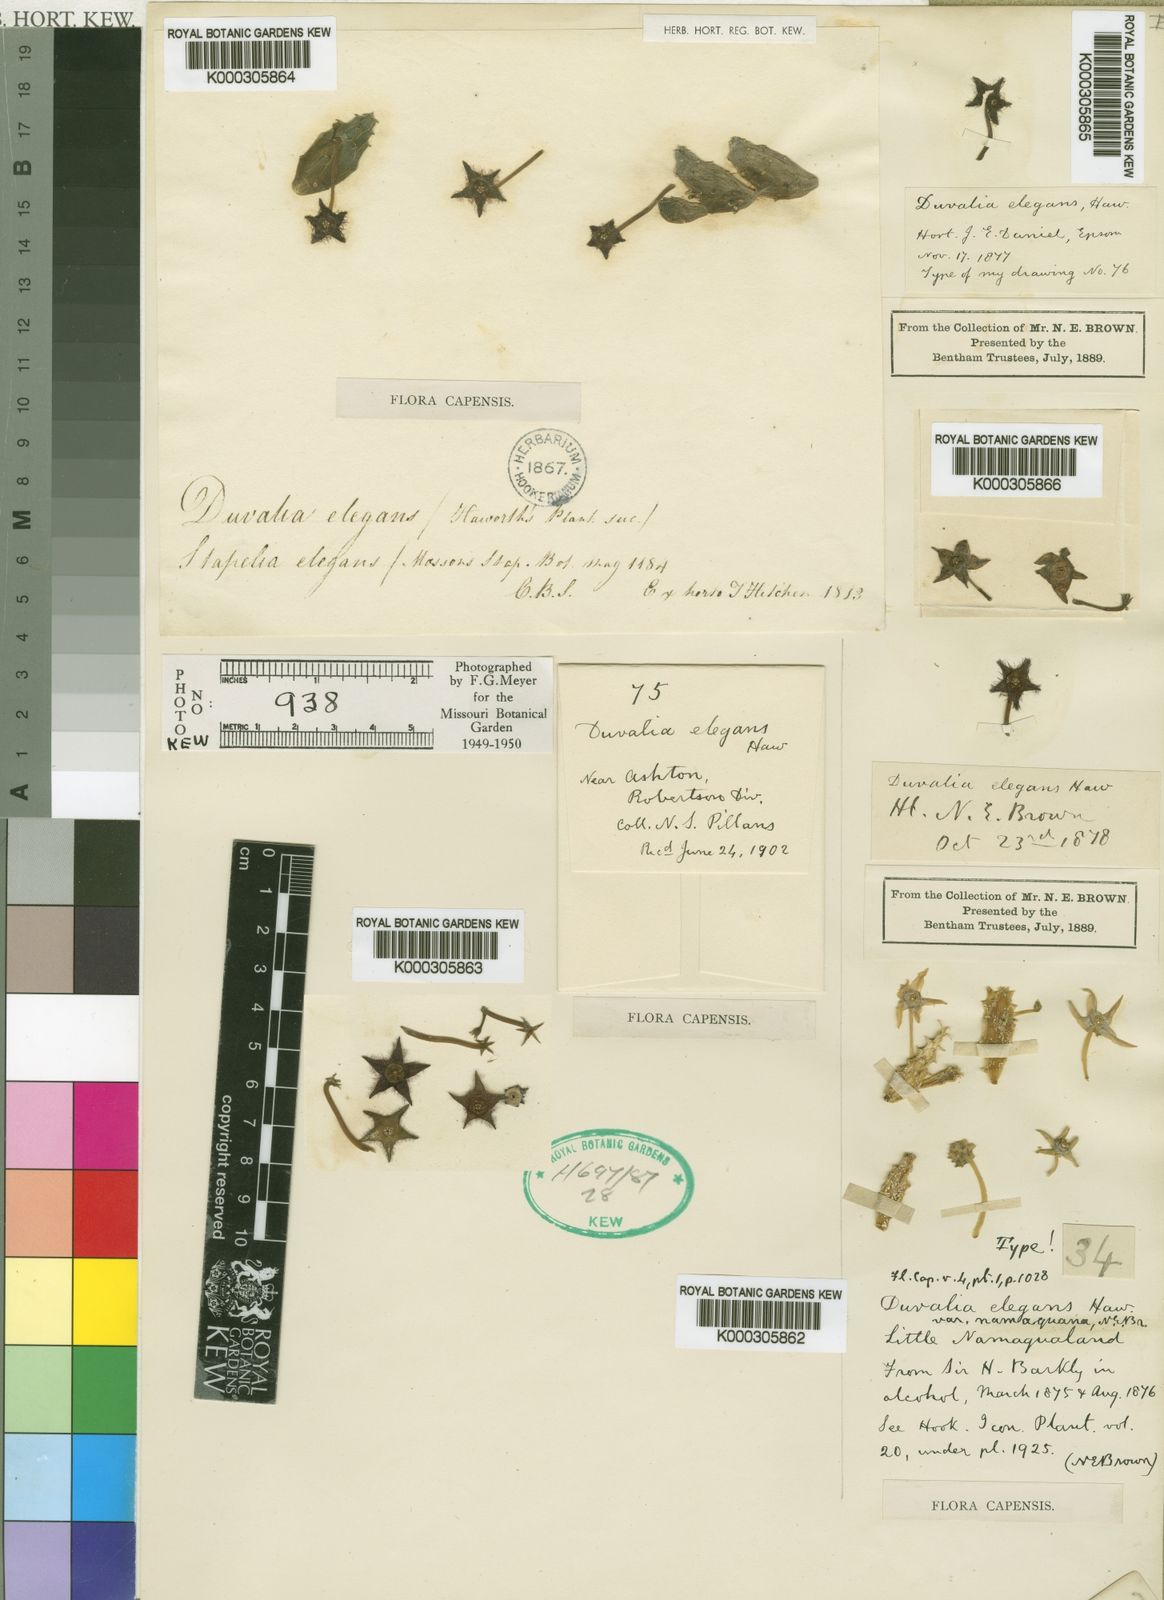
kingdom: Plantae
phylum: Tracheophyta
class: Magnoliopsida
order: Gentianales
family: Apocynaceae
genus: Ceropegia
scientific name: Ceropegia jacquiniana
